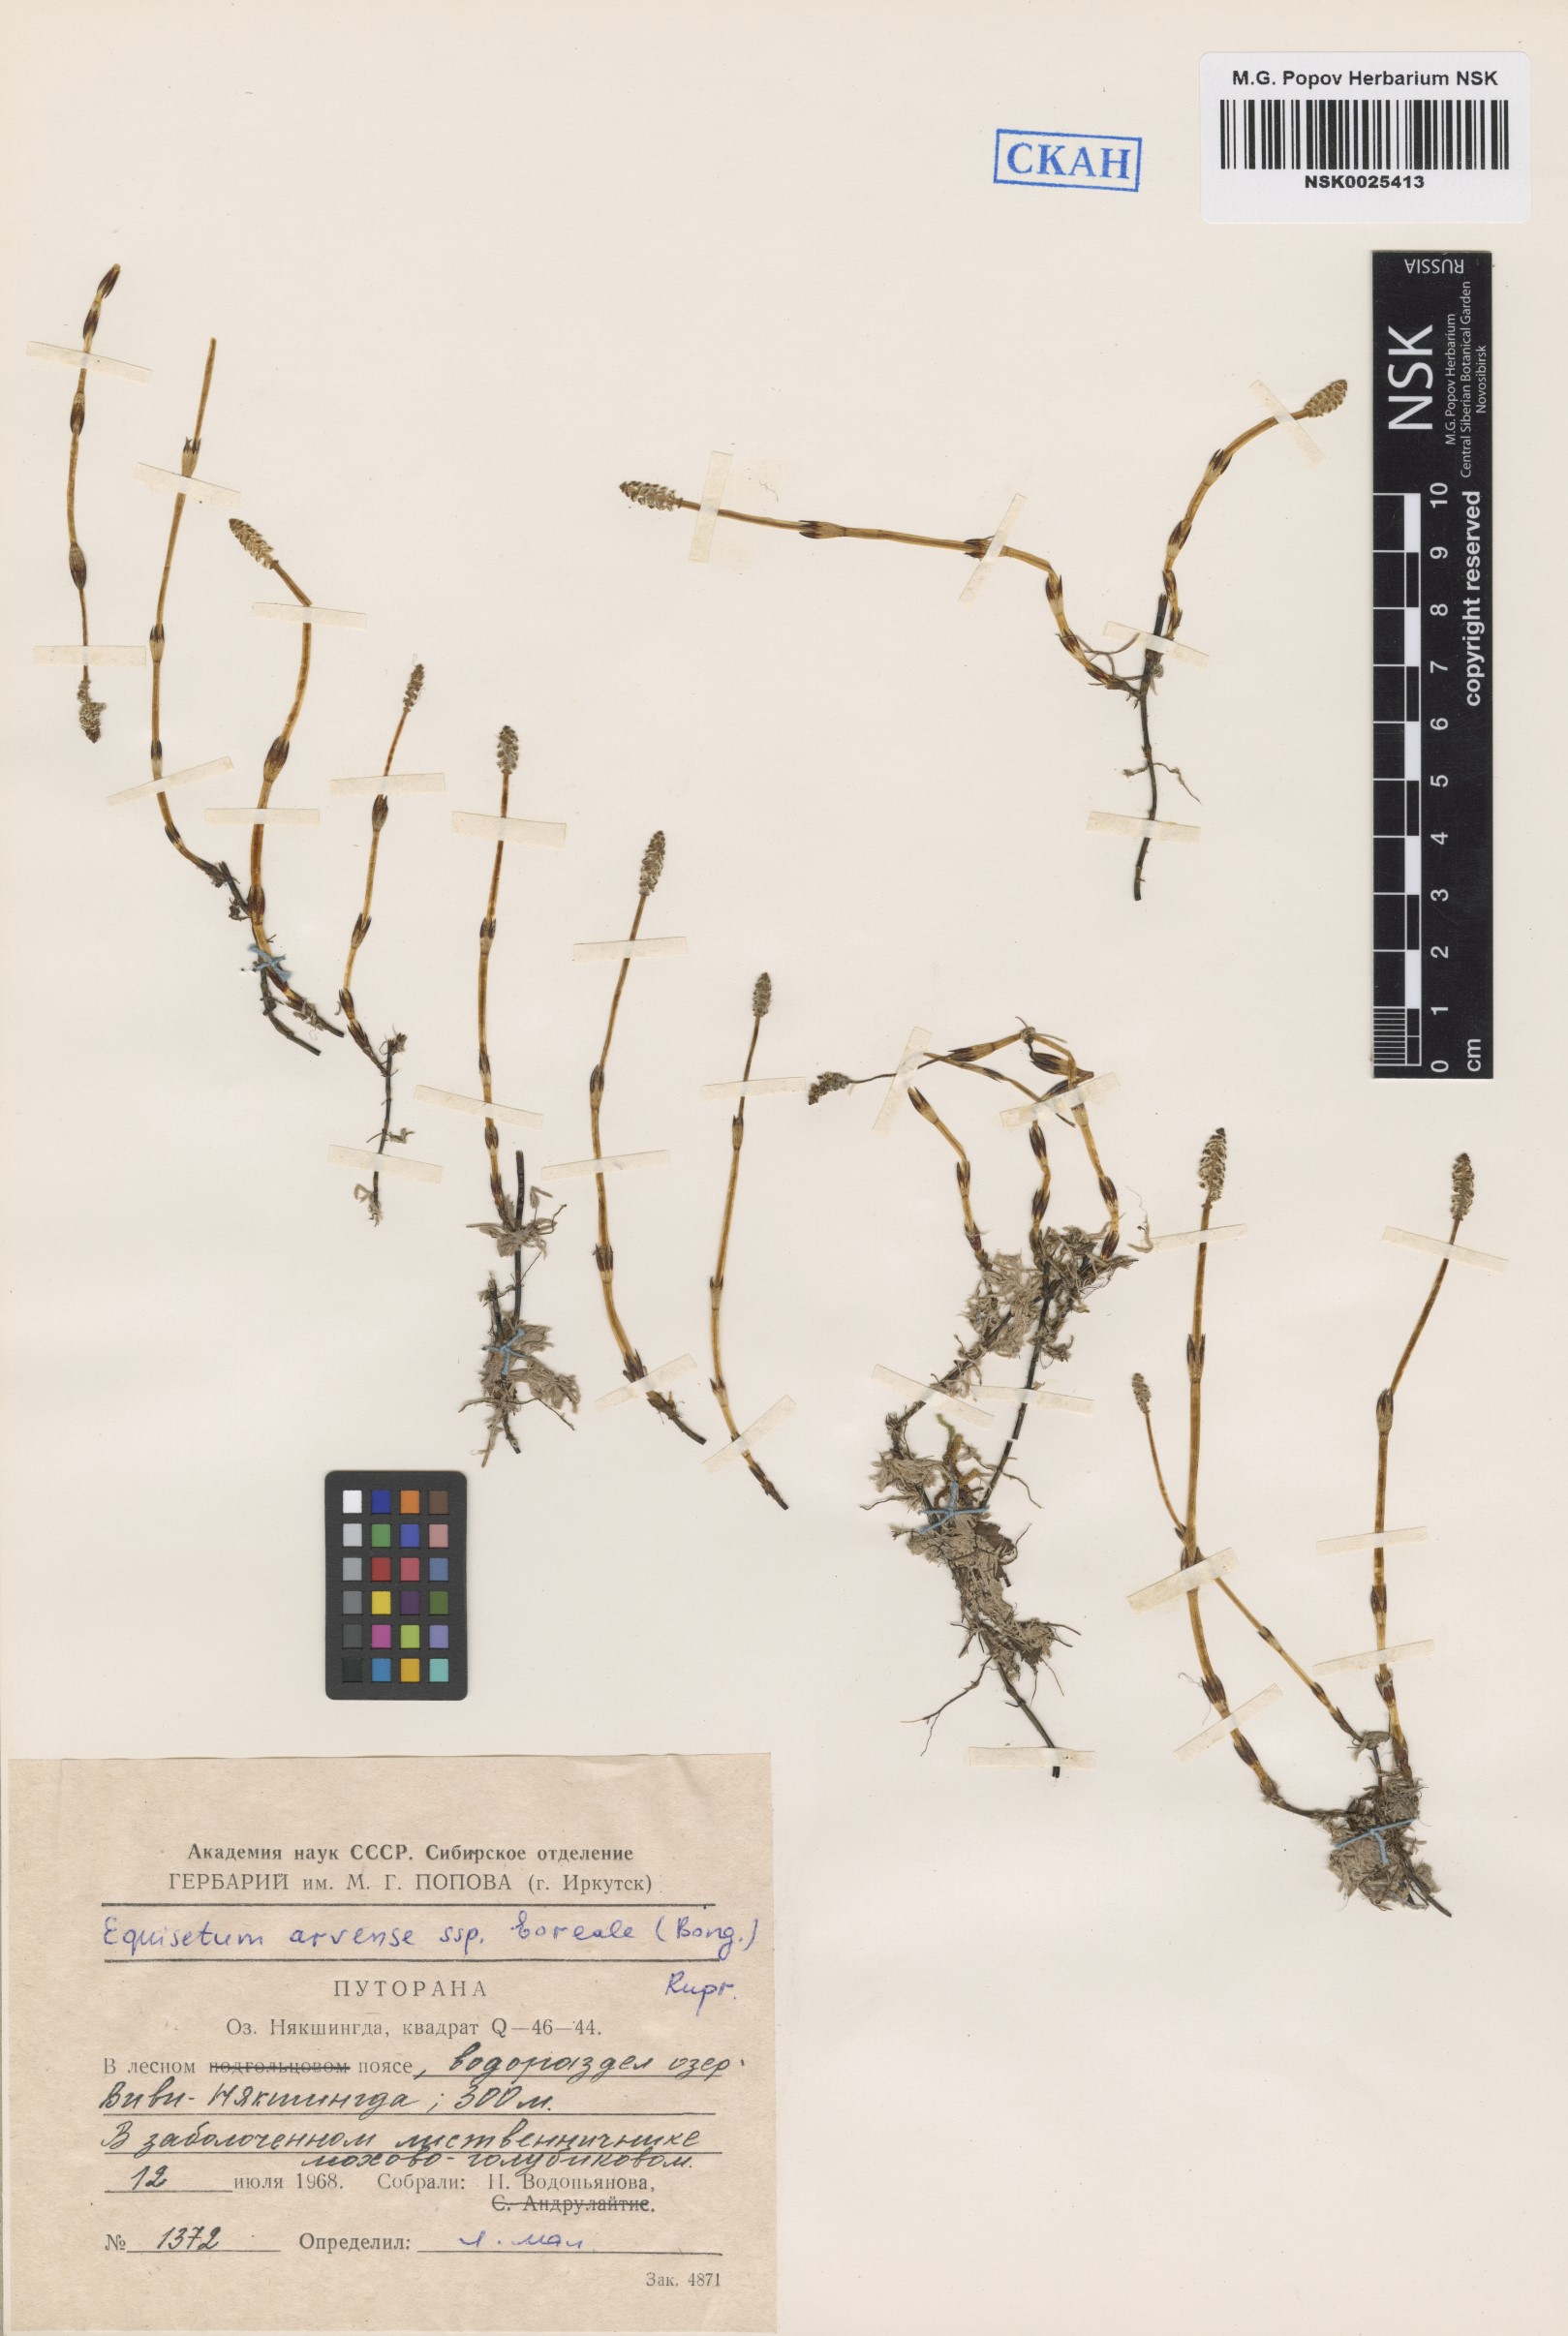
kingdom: Plantae
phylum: Tracheophyta
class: Polypodiopsida
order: Equisetales
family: Equisetaceae
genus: Equisetum
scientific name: Equisetum arvense
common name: Field horsetail
